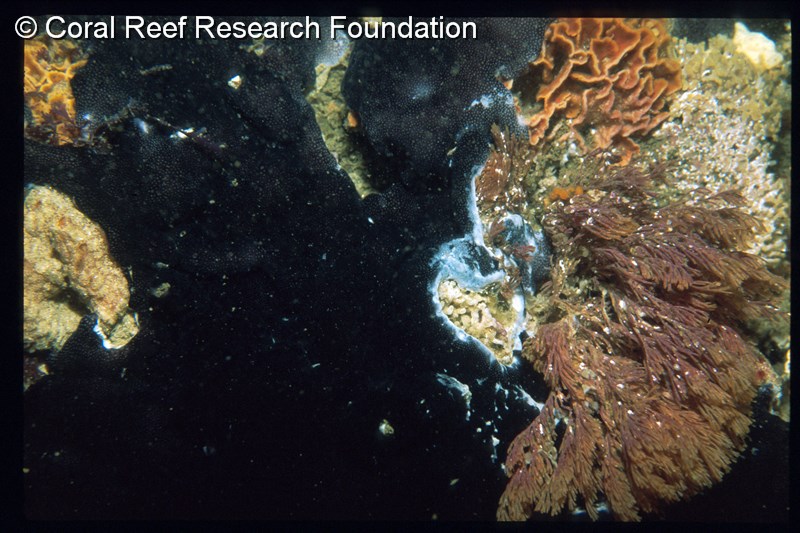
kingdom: Animalia
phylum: Chordata
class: Ascidiacea
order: Aplousobranchia
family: Didemnidae
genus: Didemnum
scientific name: Didemnum
